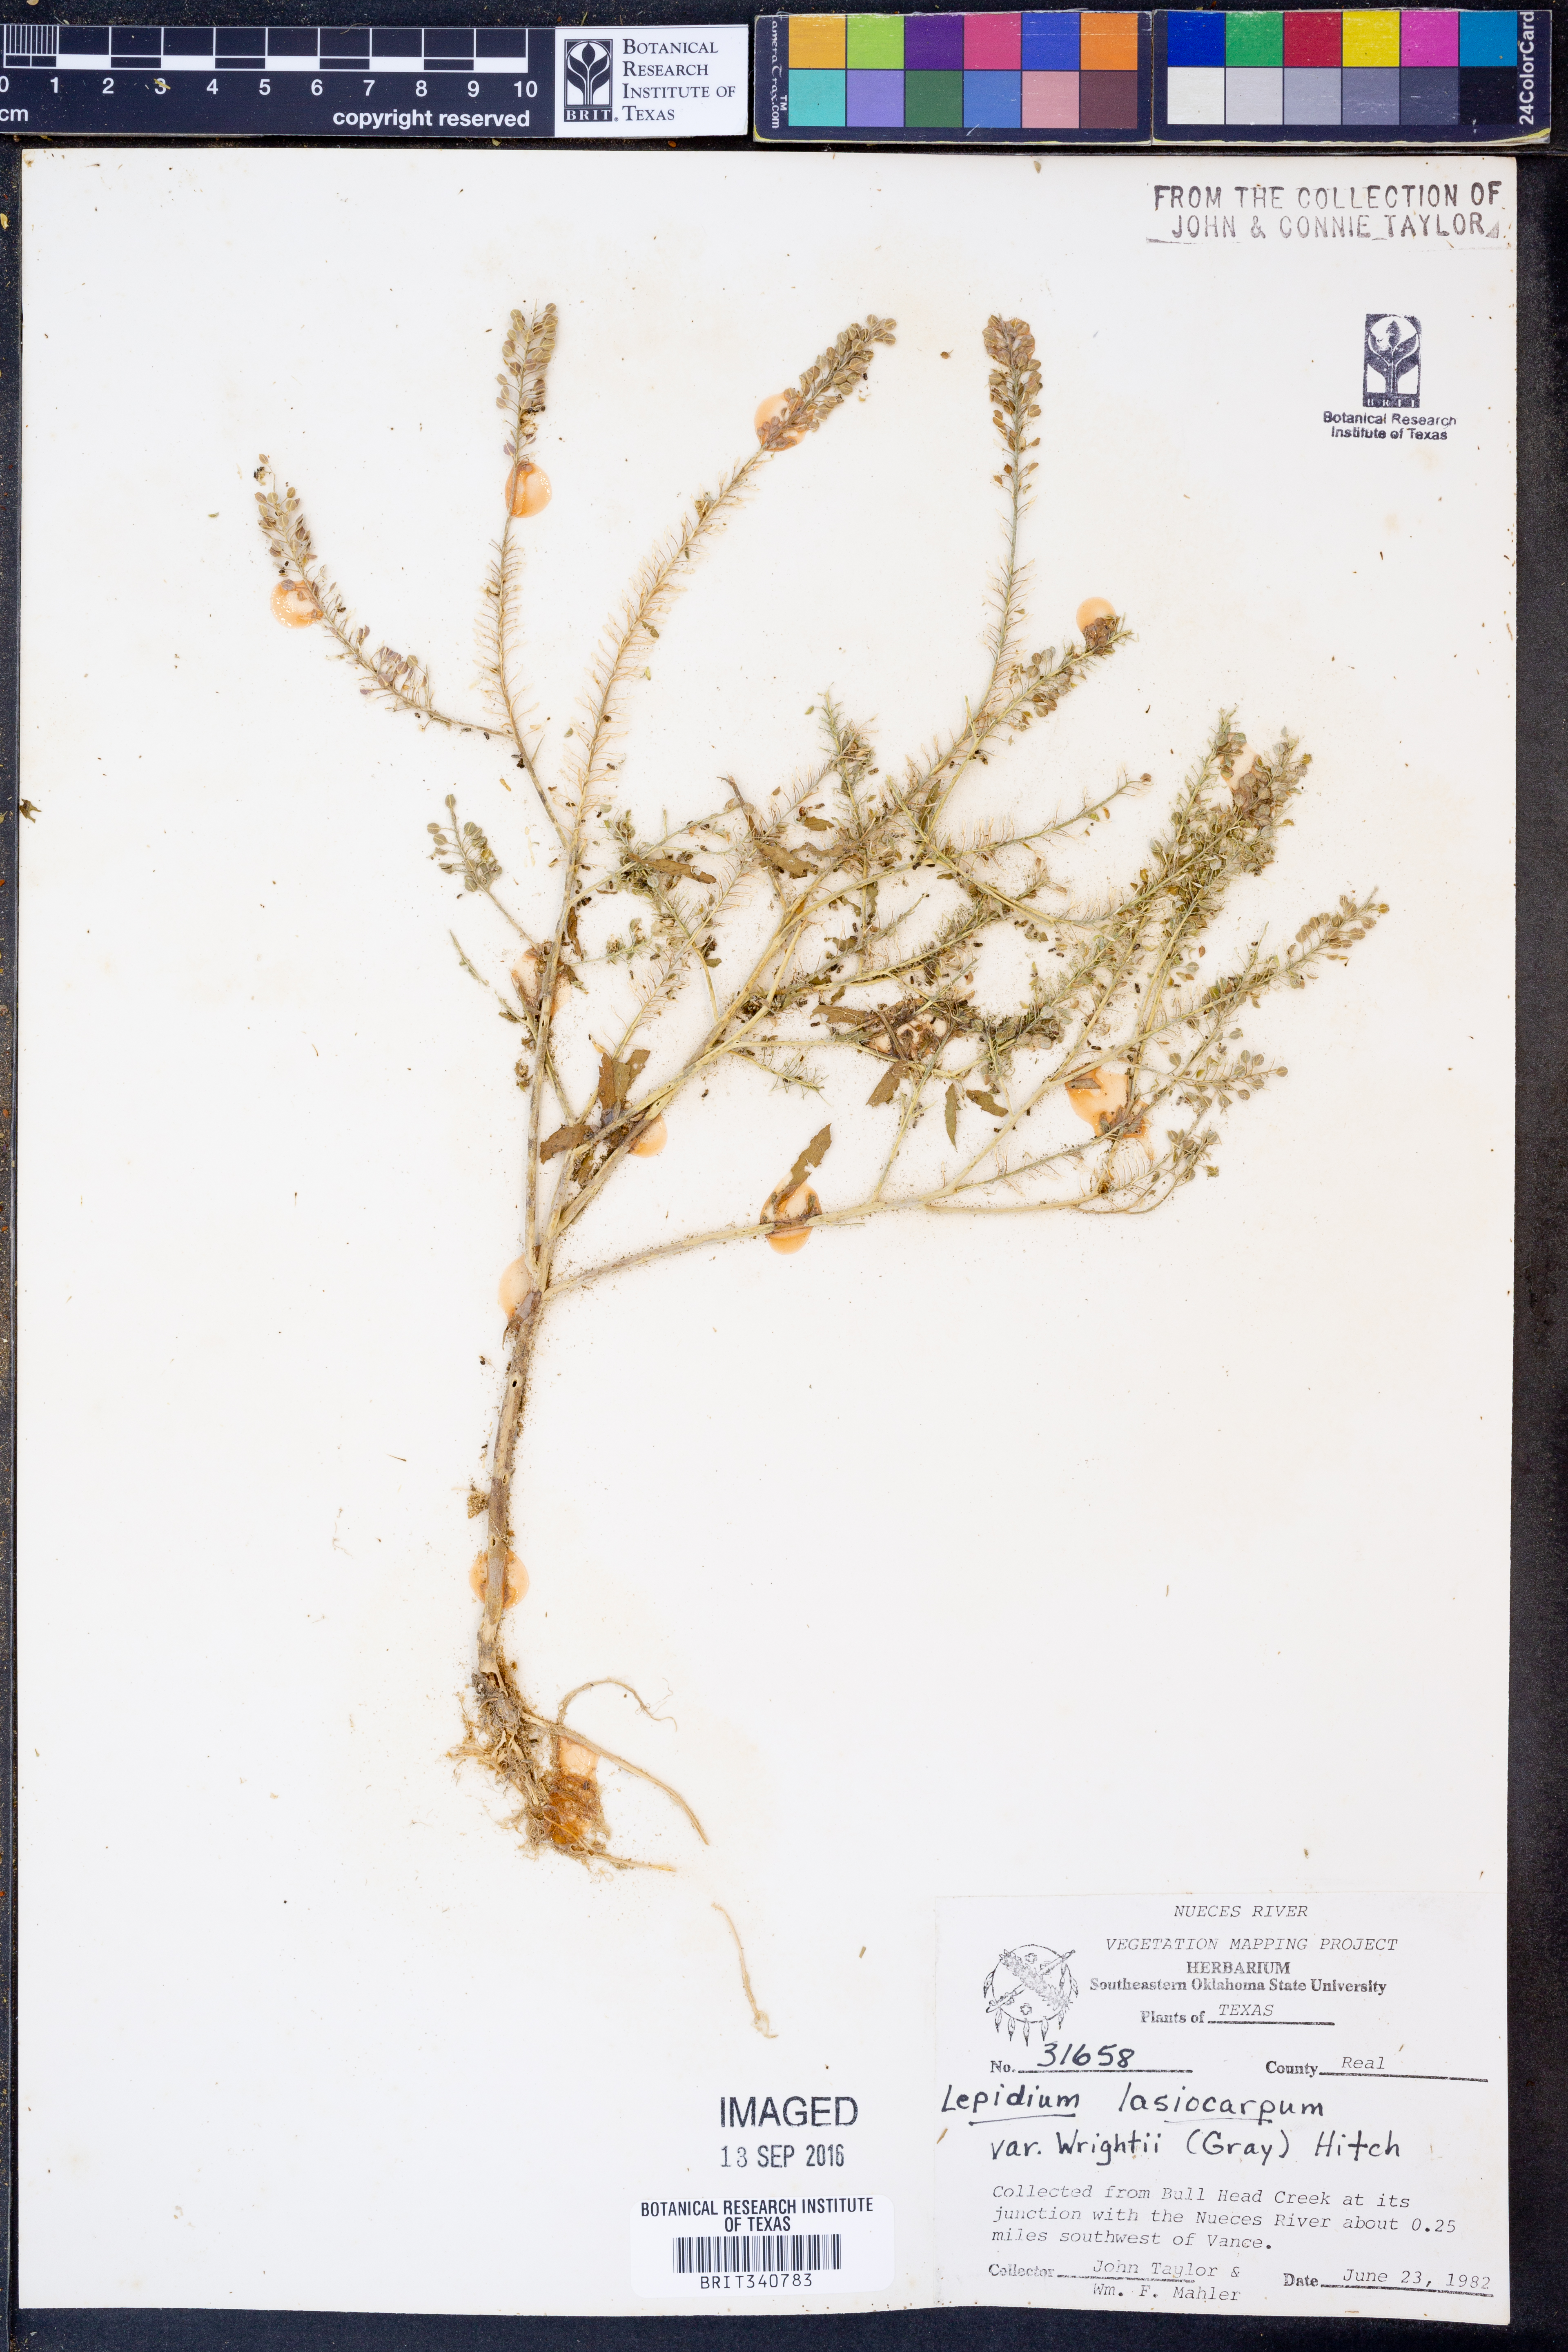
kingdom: Plantae
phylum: Tracheophyta
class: Magnoliopsida
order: Brassicales
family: Brassicaceae
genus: Lepidium
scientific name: Lepidium lasiocarpum
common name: Hairy-pod pepperwort
